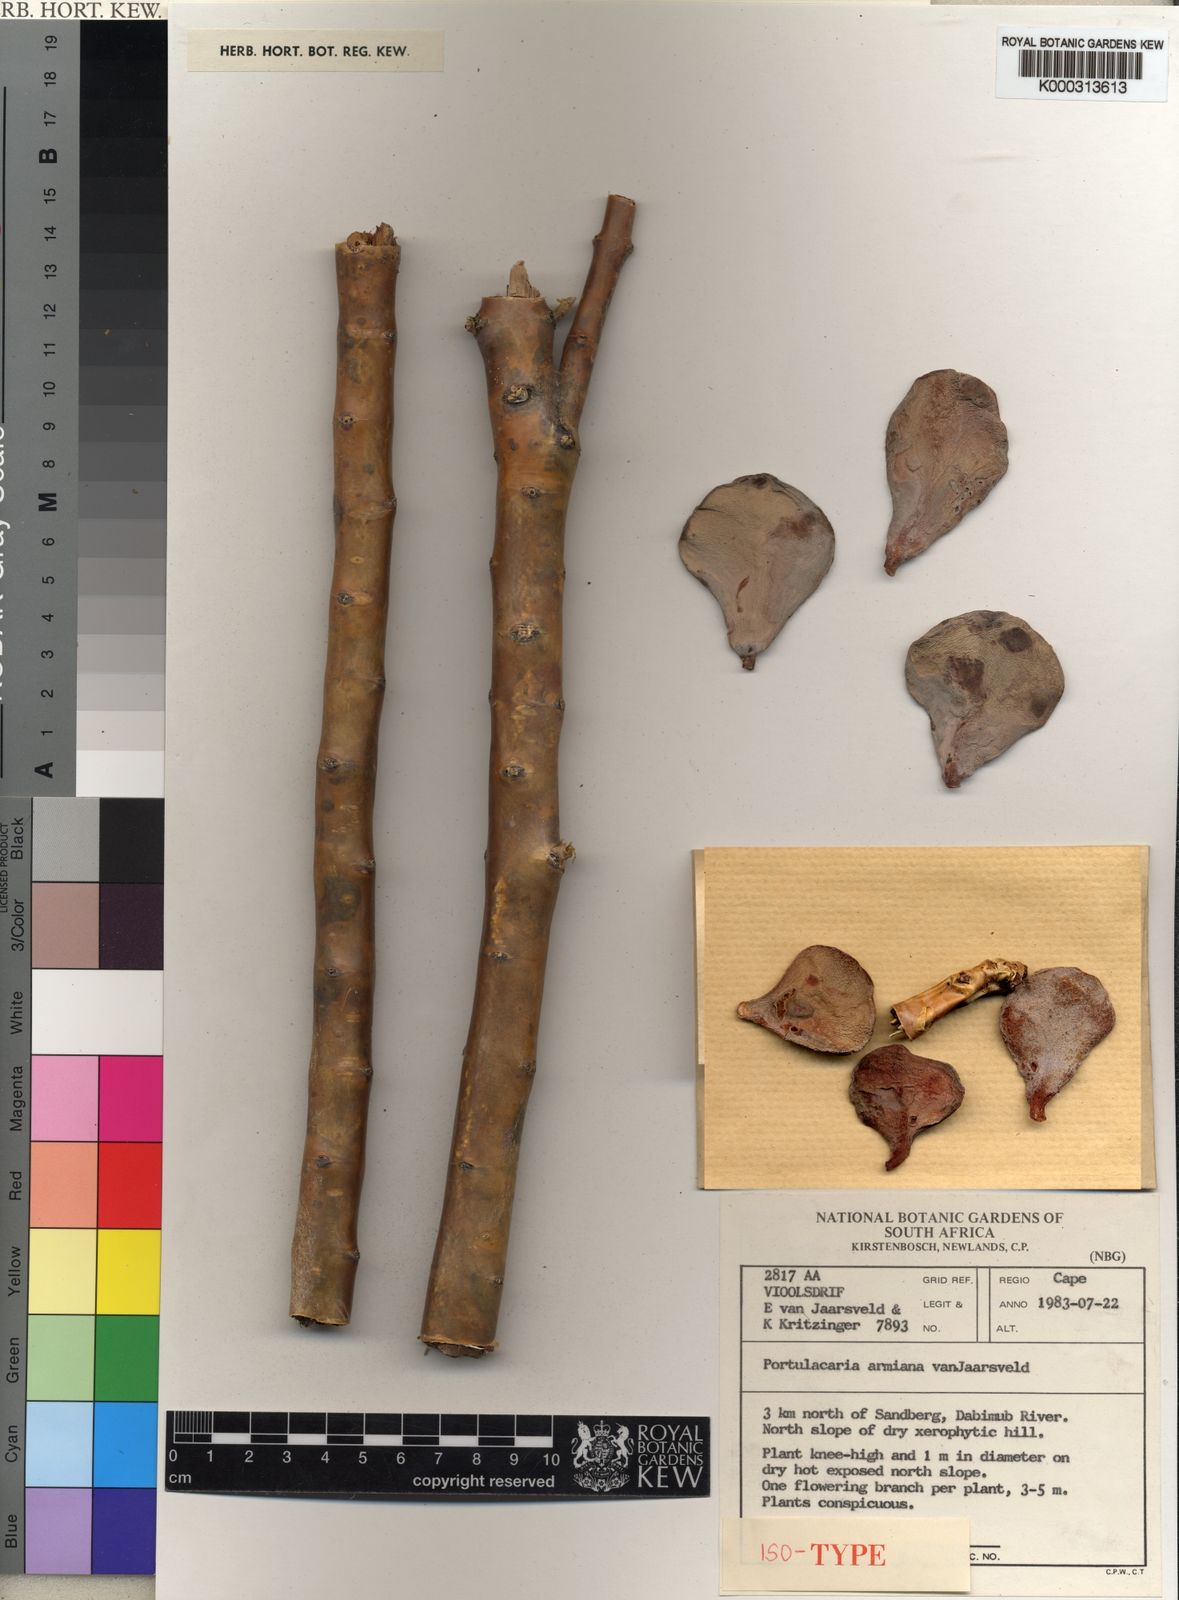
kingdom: Plantae
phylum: Tracheophyta
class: Magnoliopsida
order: Caryophyllales
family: Didiereaceae
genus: Portulacaria
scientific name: Portulacaria armiana
